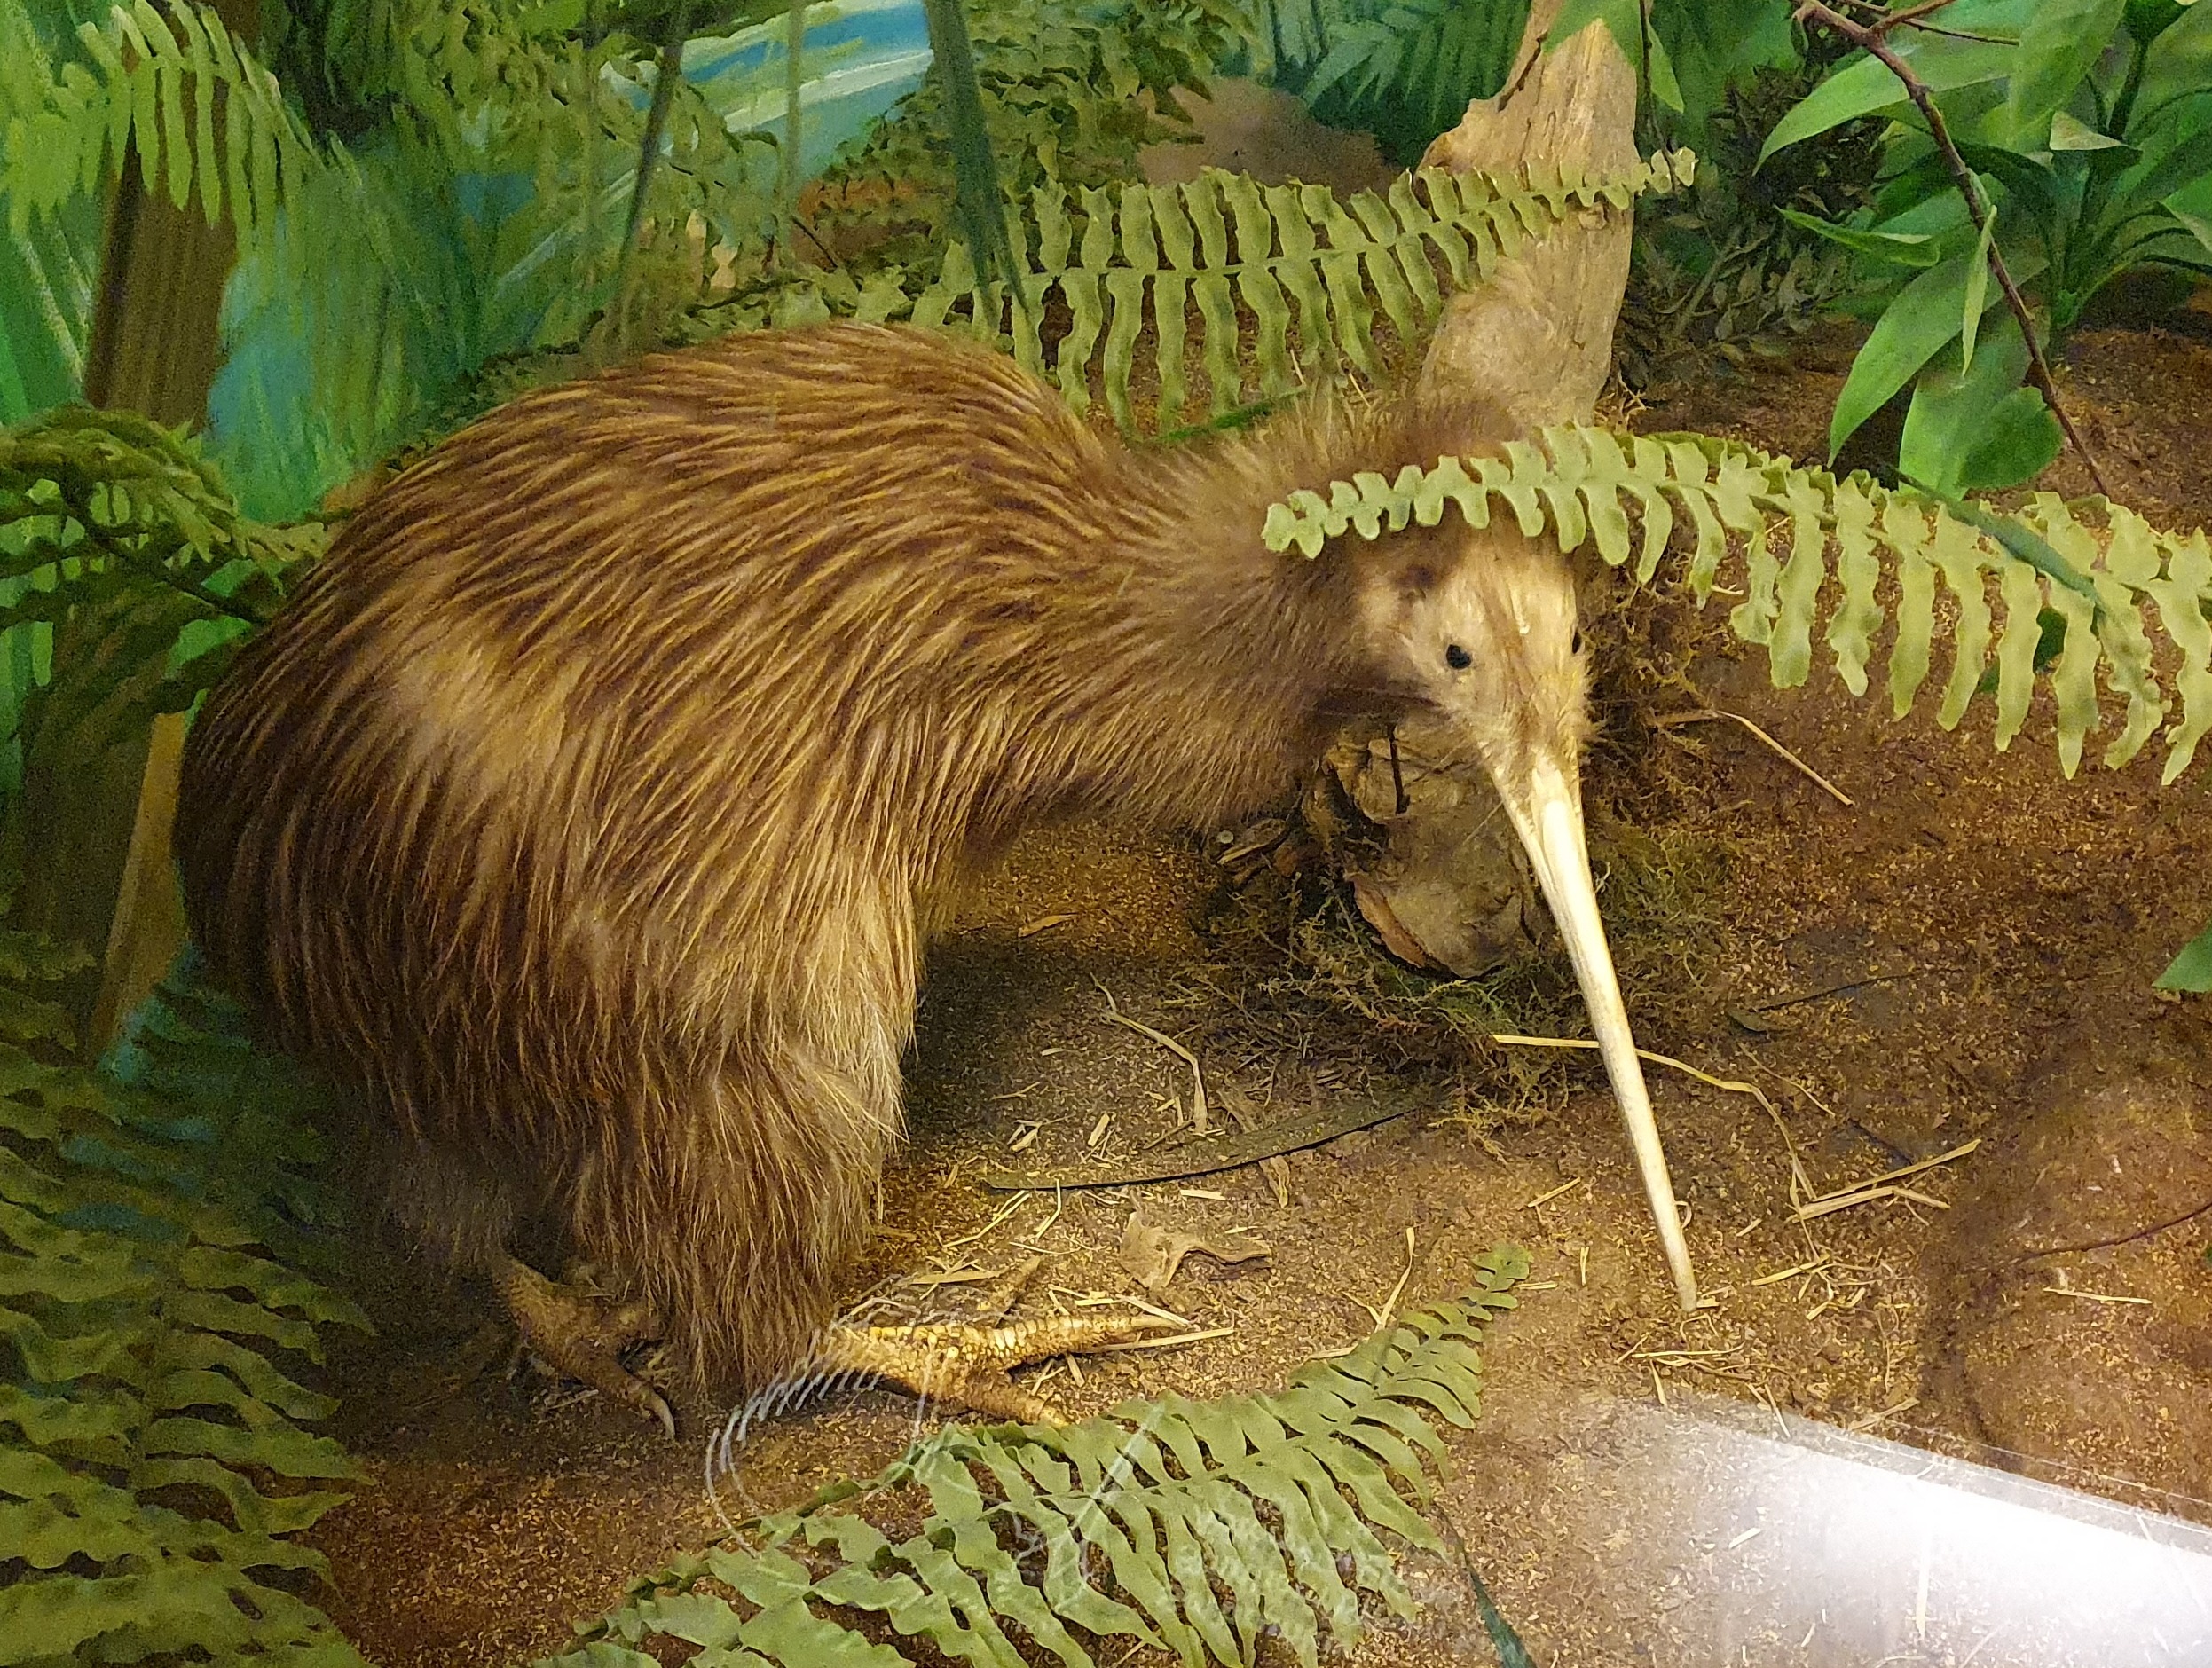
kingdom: Animalia
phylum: Chordata
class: Aves
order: Apterygiformes
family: Apterygidae
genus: Apteryx
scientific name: Apteryx australis
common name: Southern brown kiwi
